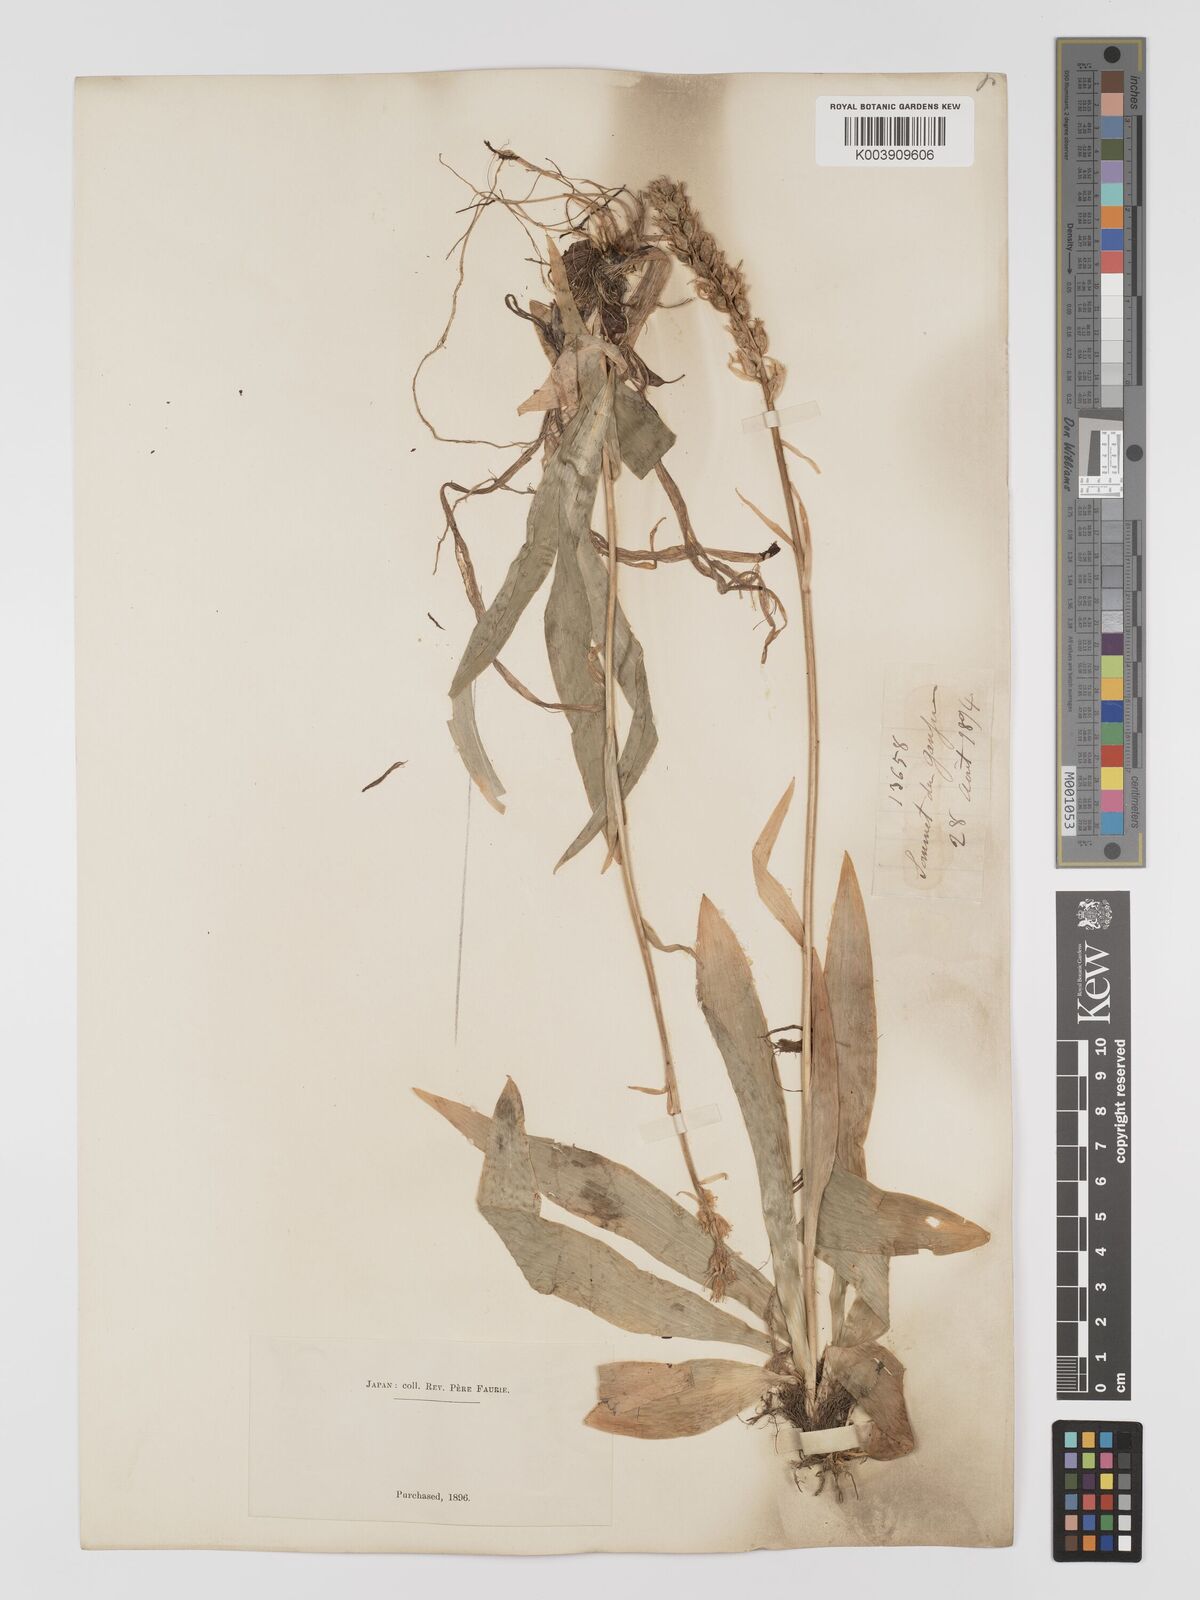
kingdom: Plantae
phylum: Tracheophyta
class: Liliopsida
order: Dioscoreales
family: Nartheciaceae
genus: Aletris
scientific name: Aletris foliata
